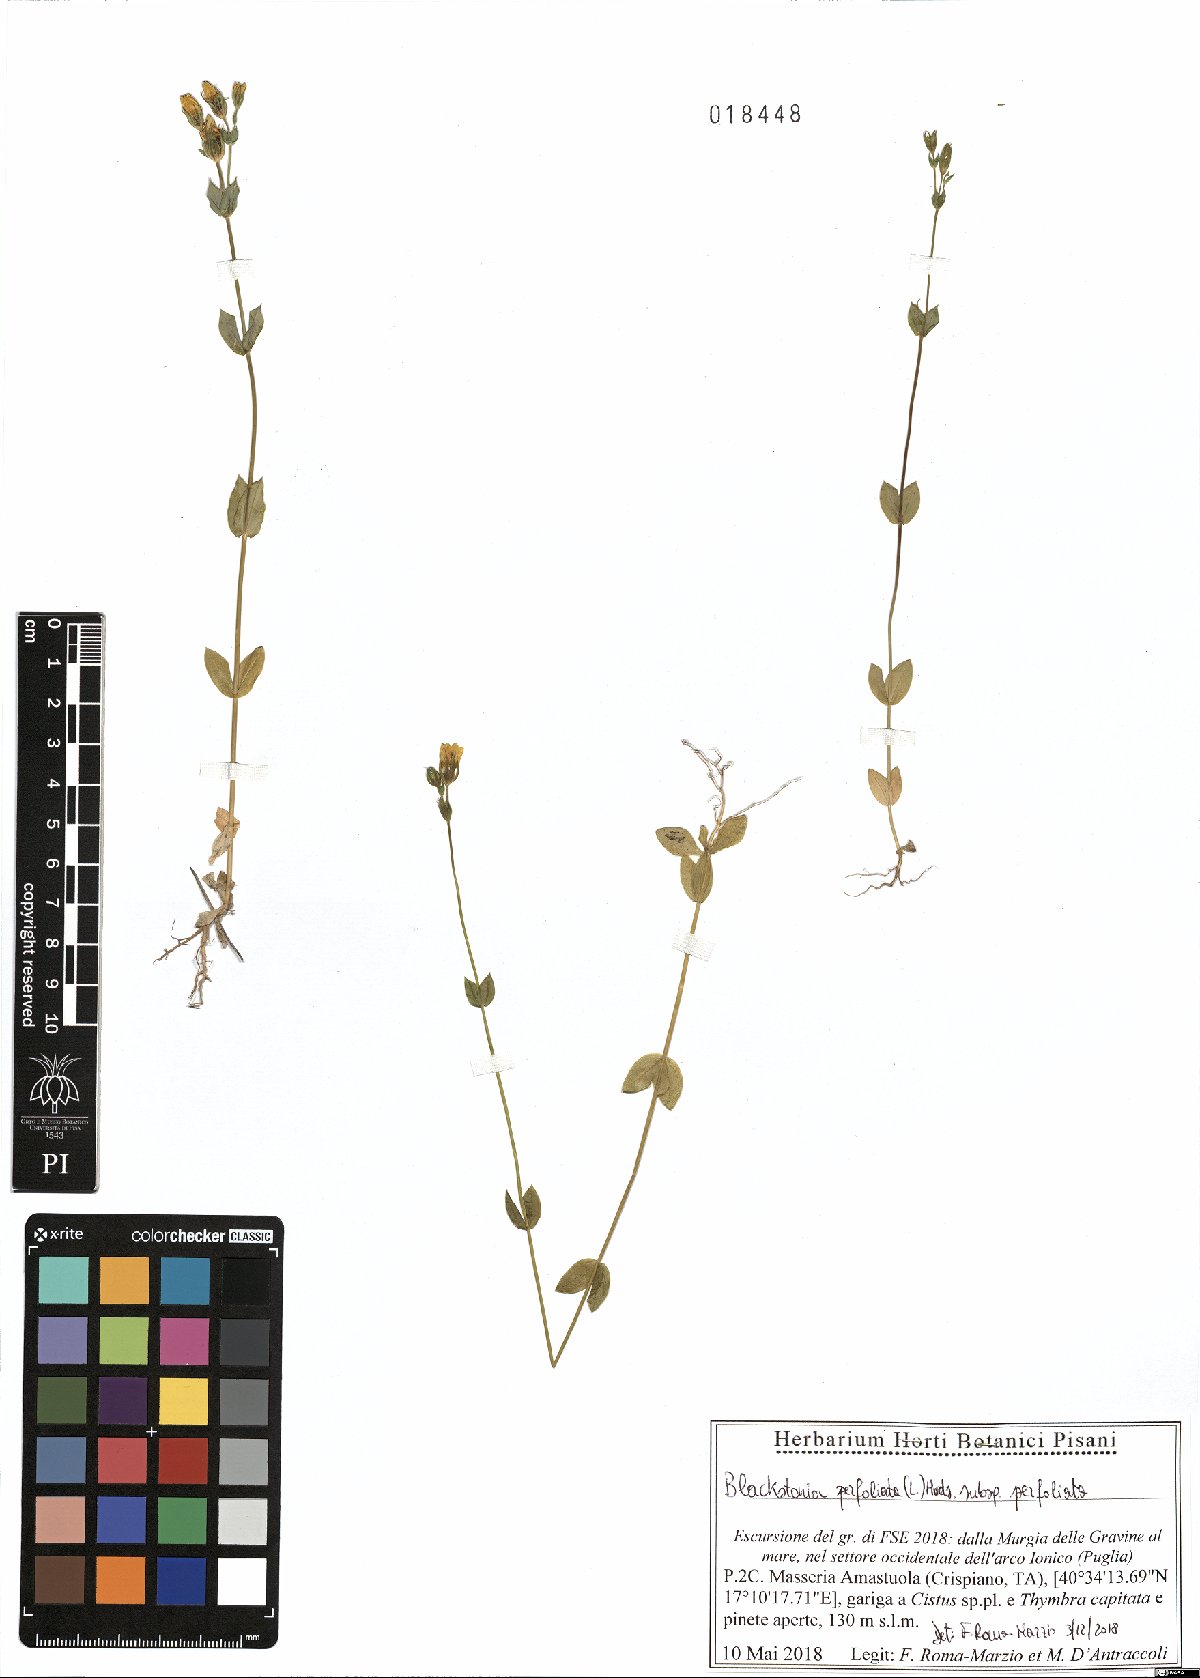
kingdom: Plantae
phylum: Tracheophyta
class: Magnoliopsida
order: Gentianales
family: Gentianaceae
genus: Blackstonia
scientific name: Blackstonia perfoliata
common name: Yellow-wort
